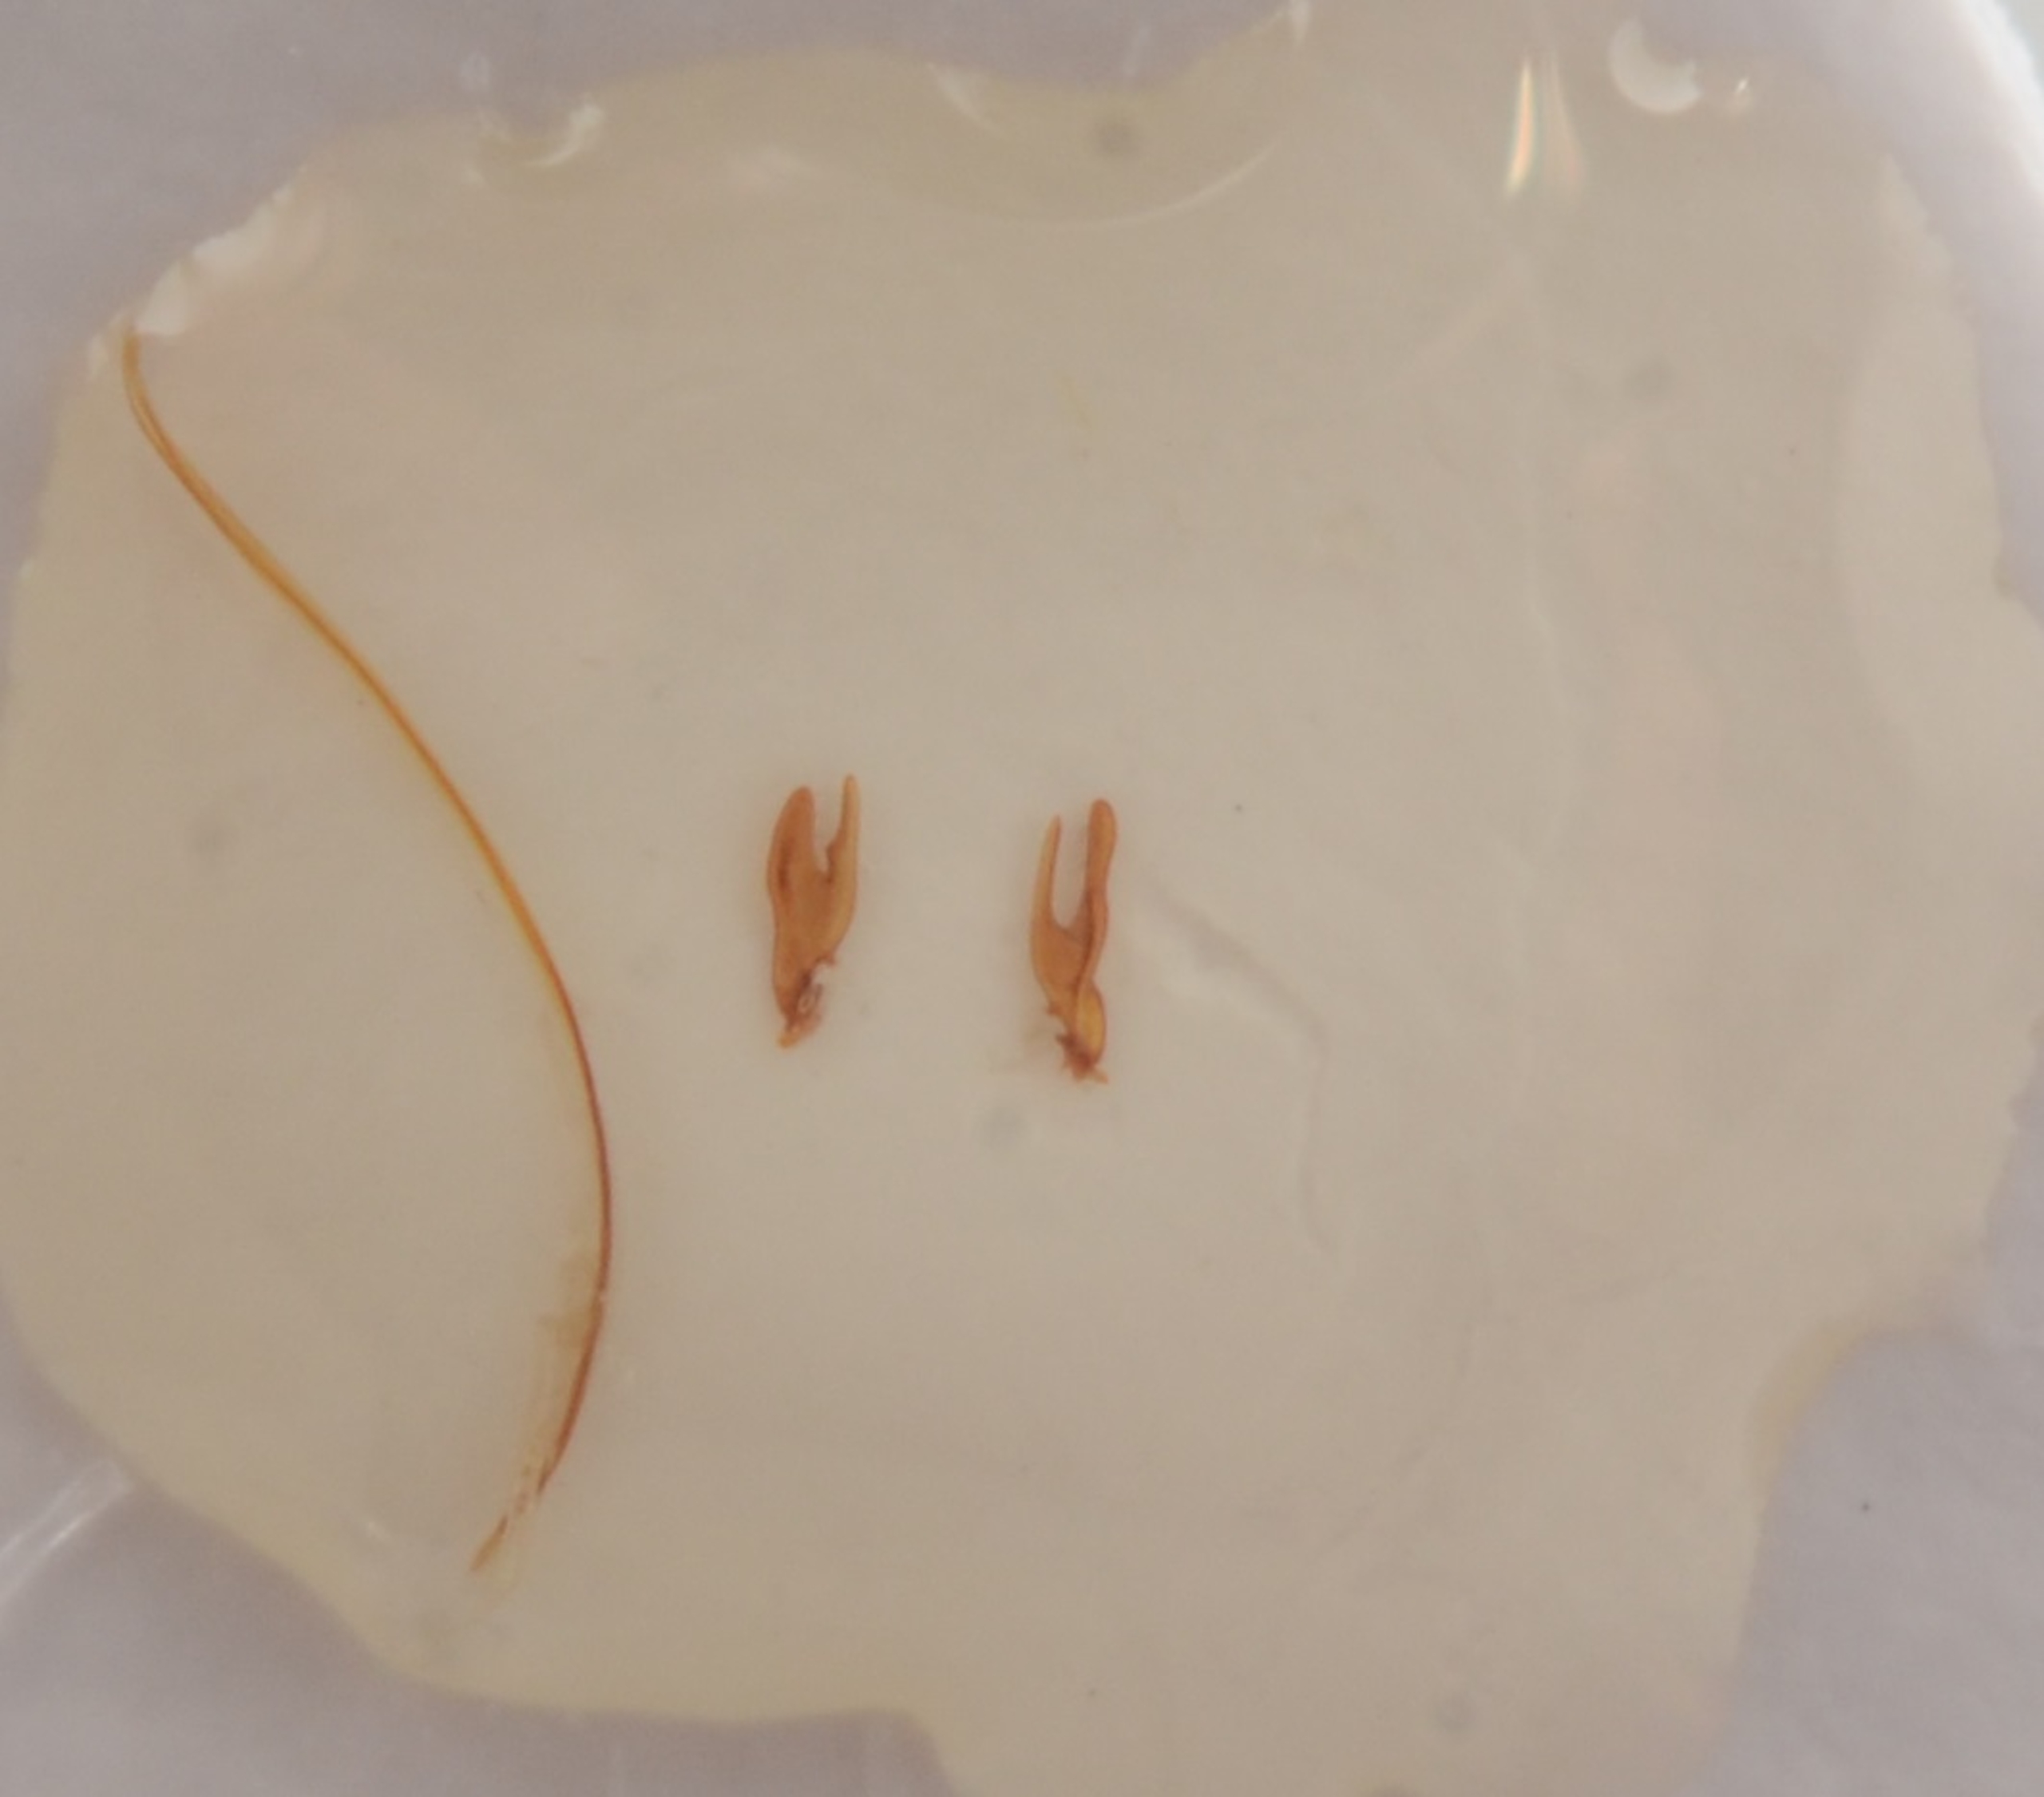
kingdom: Animalia
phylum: Arthropoda
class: Insecta
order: Coleoptera
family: Mordellidae
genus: Mordellistena
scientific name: Mordellistena parvula
